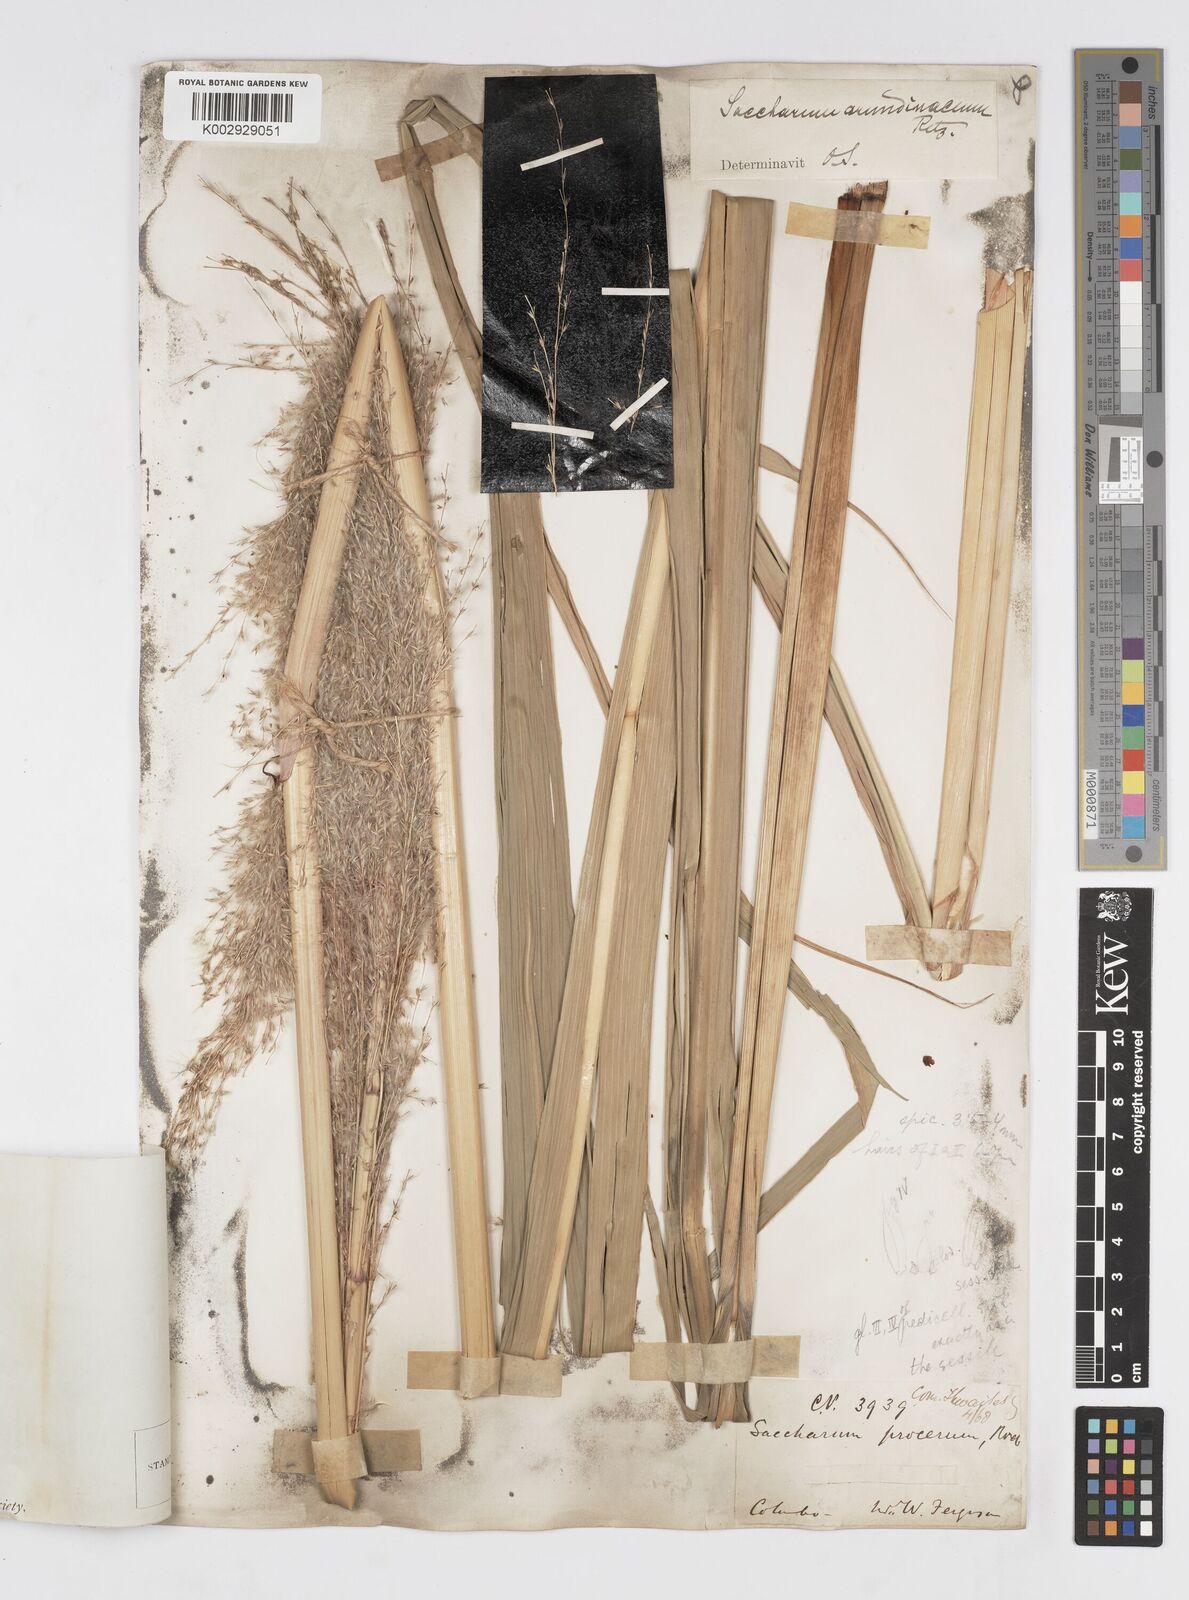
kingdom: Plantae
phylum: Tracheophyta
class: Liliopsida
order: Poales
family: Poaceae
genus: Tripidium
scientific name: Tripidium arundinaceum
